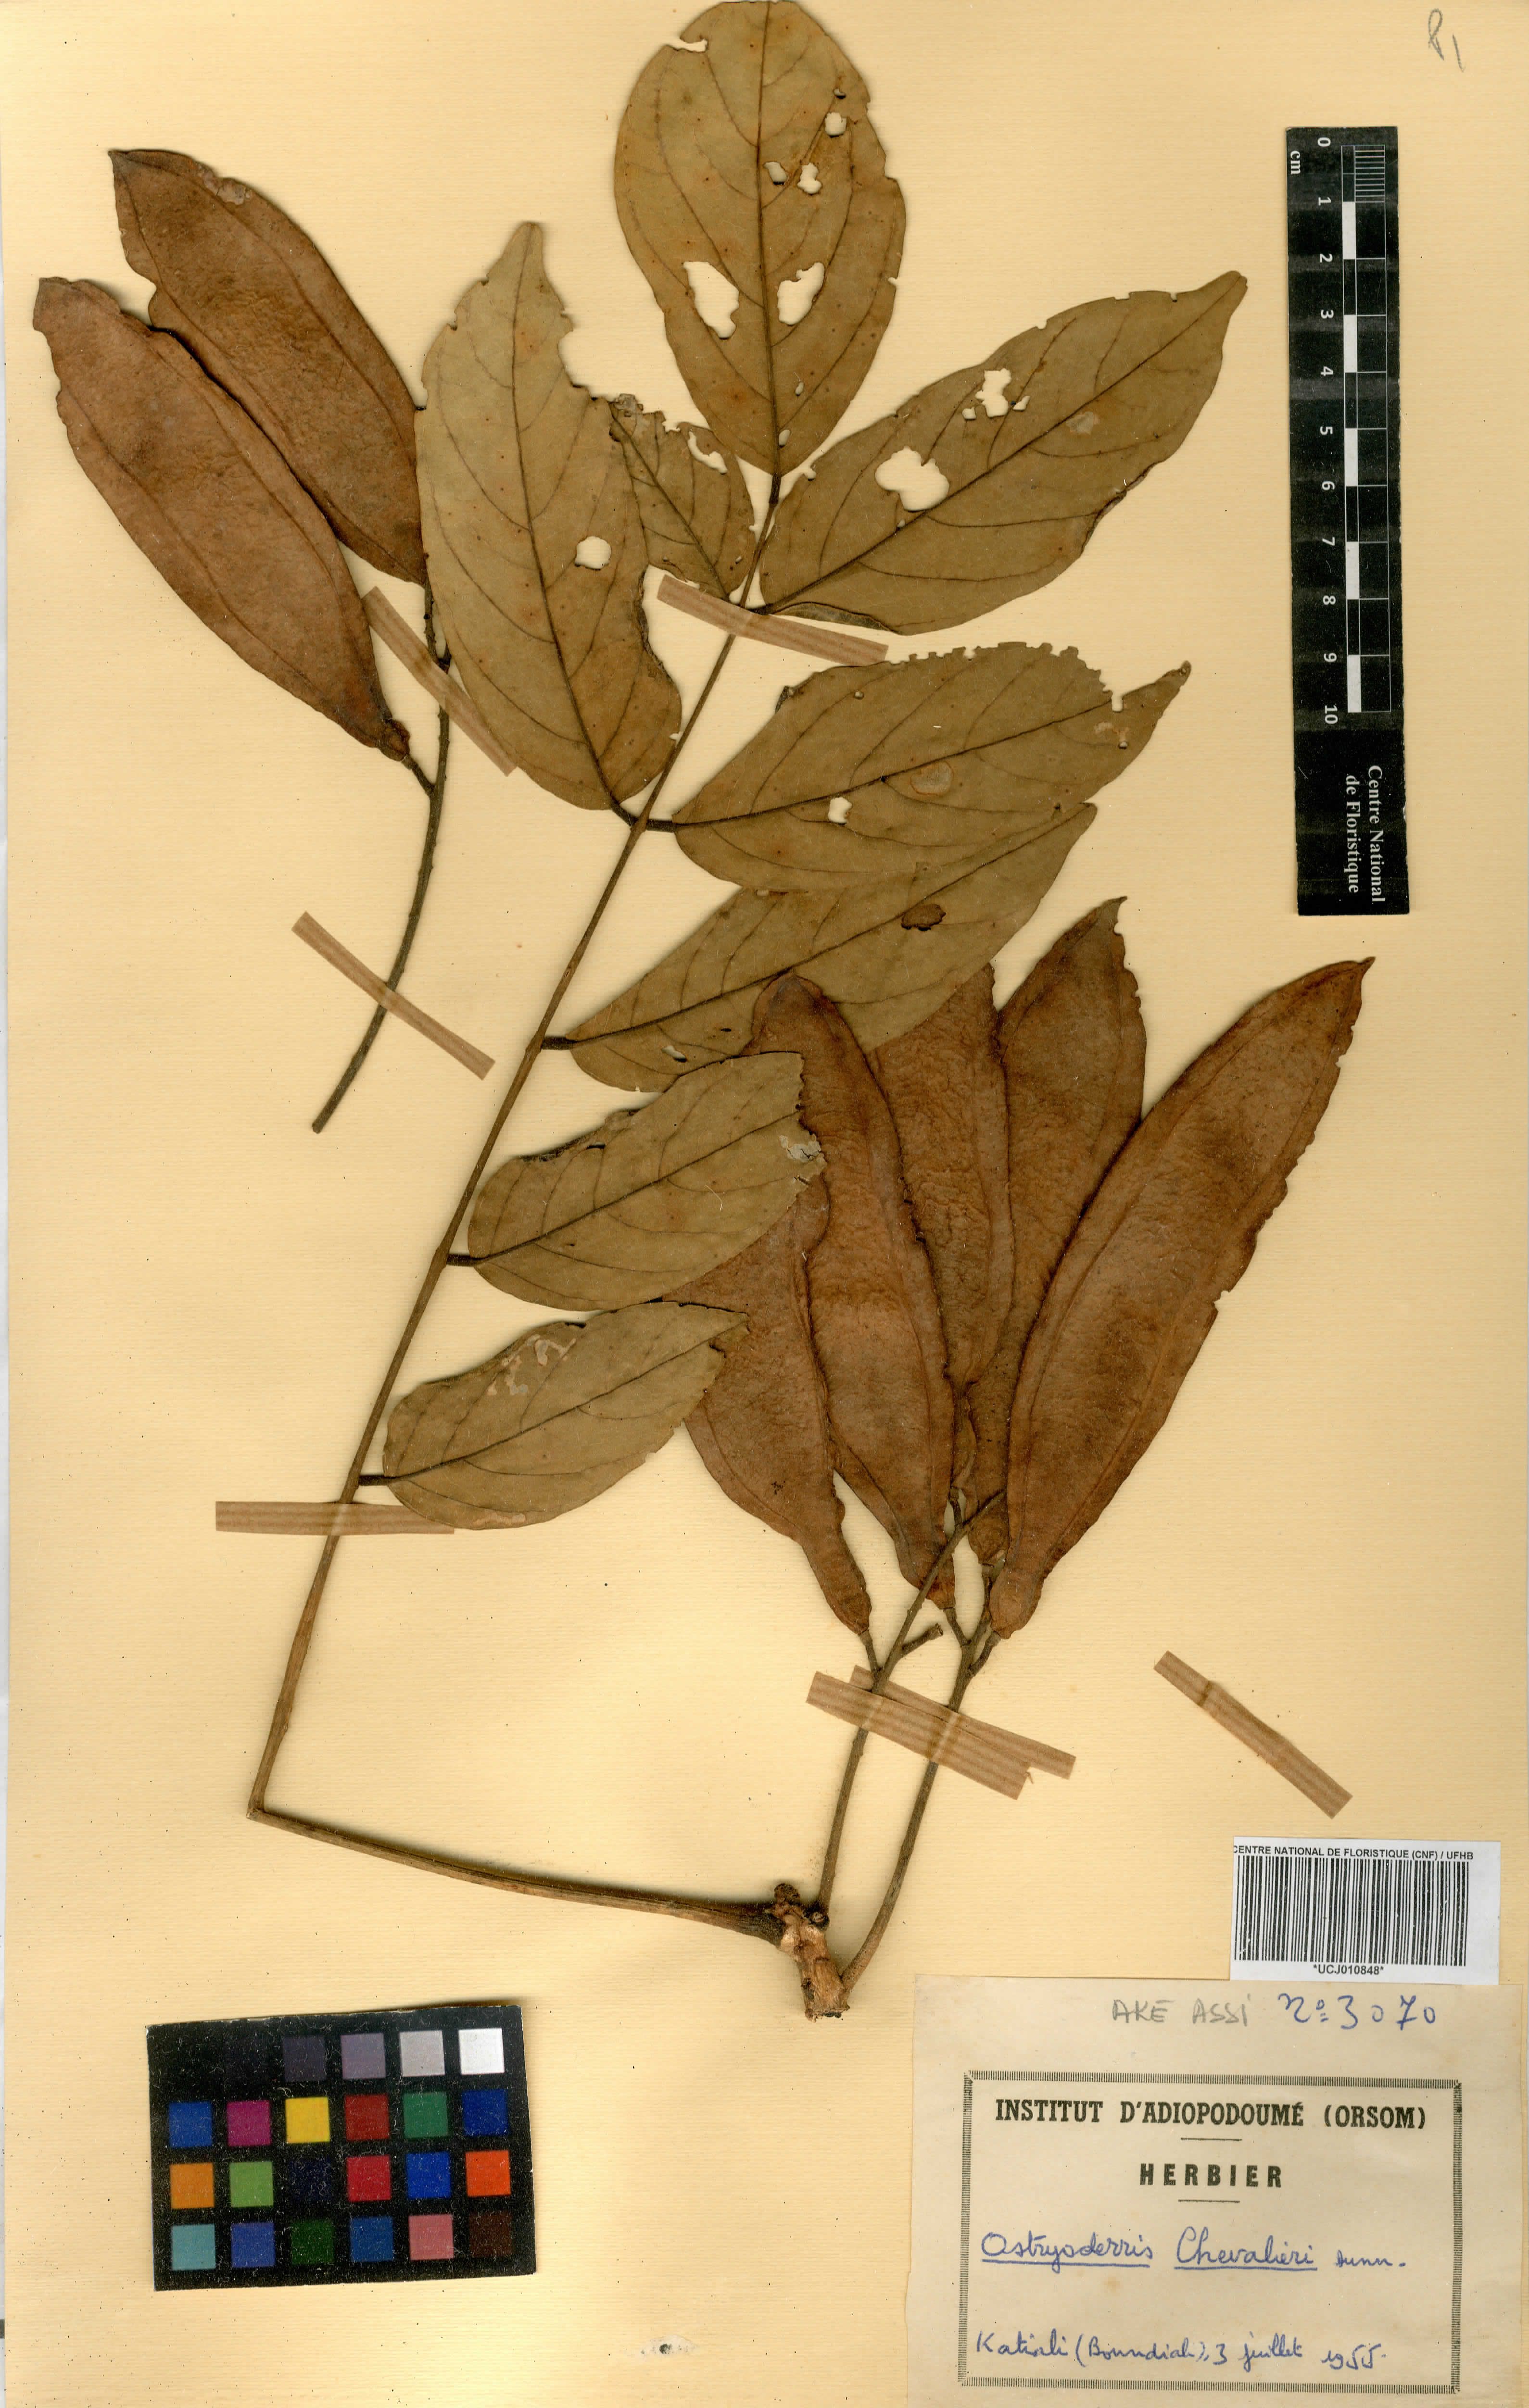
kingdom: Plantae
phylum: Tracheophyta
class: Magnoliopsida
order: Fabales
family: Fabaceae
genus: Aganope
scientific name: Aganope stuhlmannii
